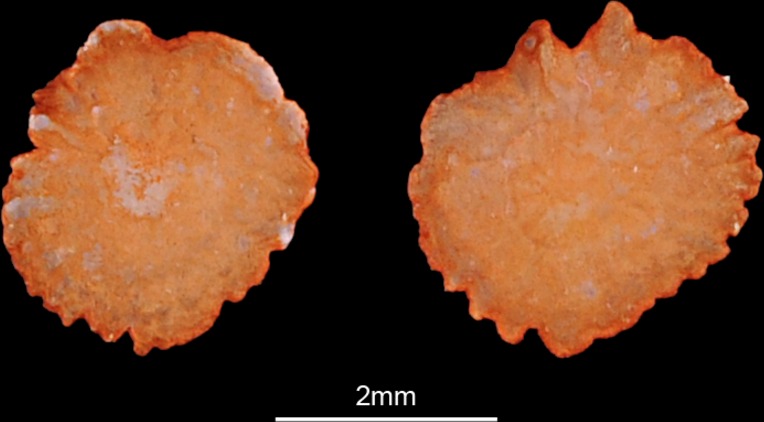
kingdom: Animalia
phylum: Chordata
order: Cypriniformes
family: Cyprinidae
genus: Vimba
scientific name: Vimba vimba
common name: Vimba
